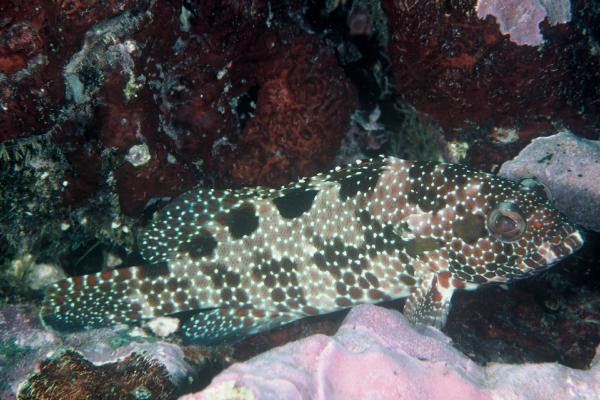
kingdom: Animalia
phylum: Chordata
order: Perciformes
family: Serranidae
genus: Epinephelus
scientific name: Epinephelus hexagonatus
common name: Hexagon grouper
